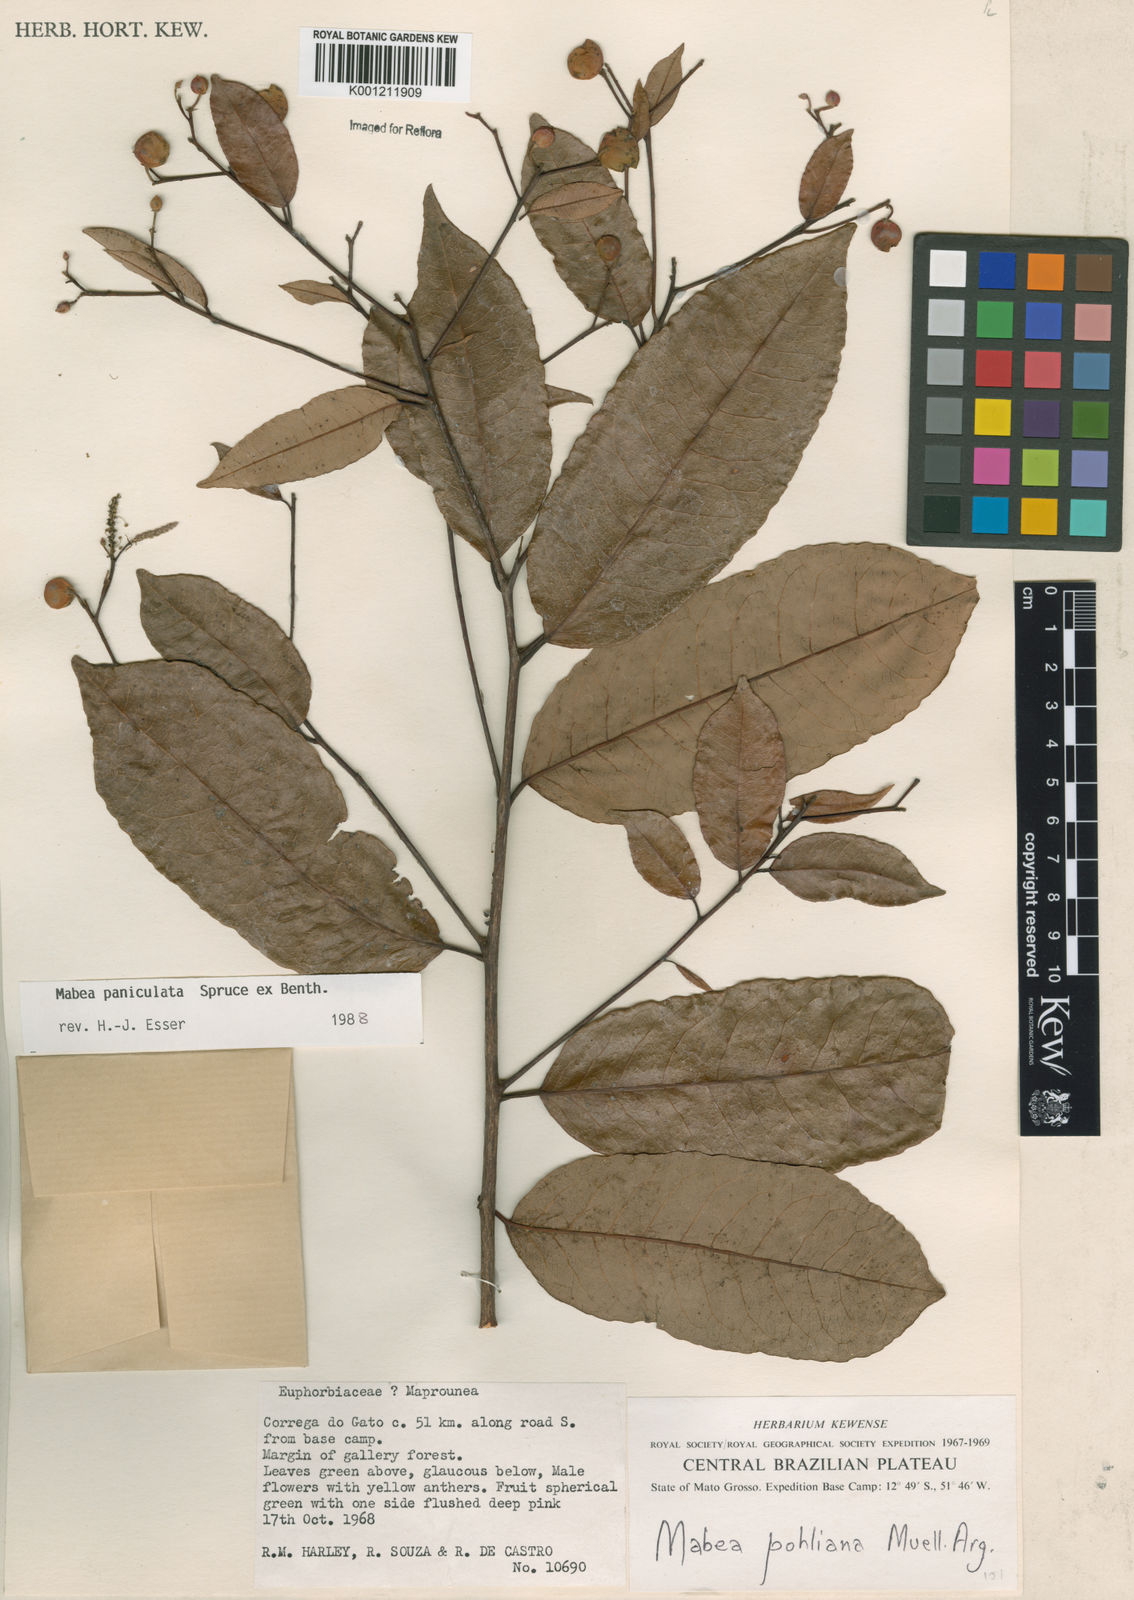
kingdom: Plantae
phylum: Tracheophyta
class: Magnoliopsida
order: Malpighiales
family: Euphorbiaceae
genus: Mabea
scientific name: Mabea paniculata
